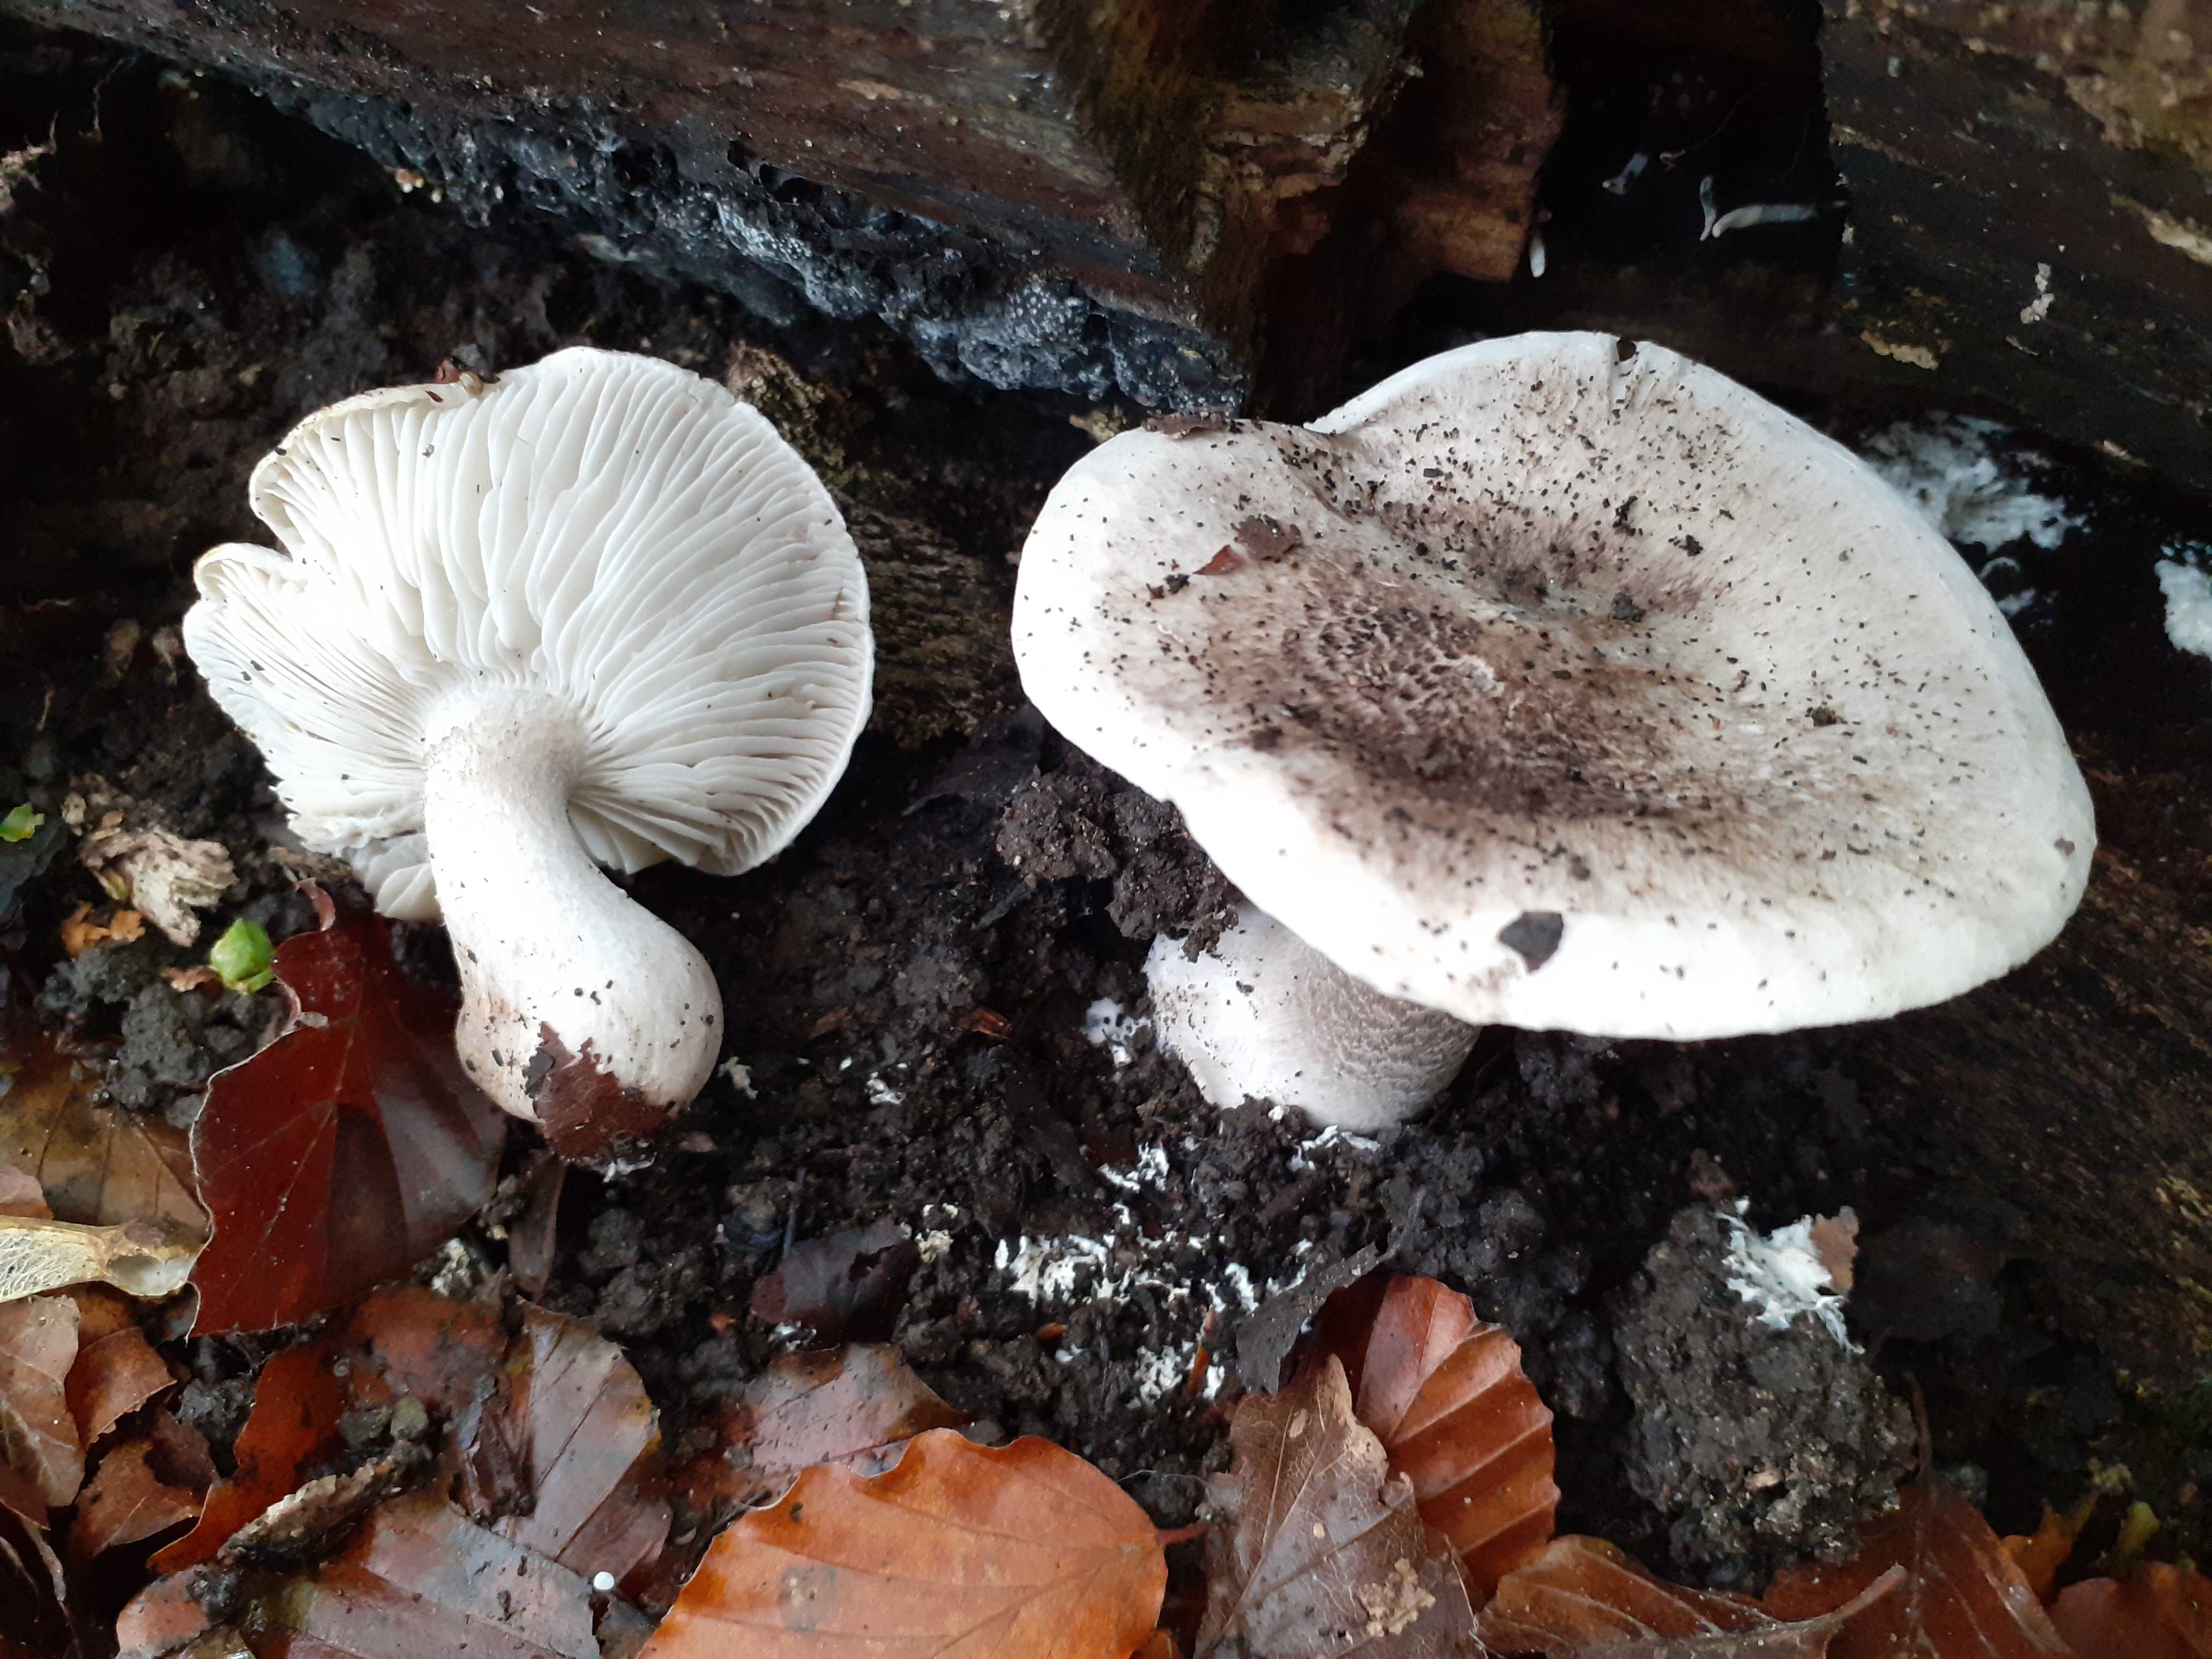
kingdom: Fungi
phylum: Basidiomycota
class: Agaricomycetes
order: Agaricales
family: Tricholomataceae
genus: Tricholoma
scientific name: Tricholoma basirubens
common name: rødfodet ridderhat
